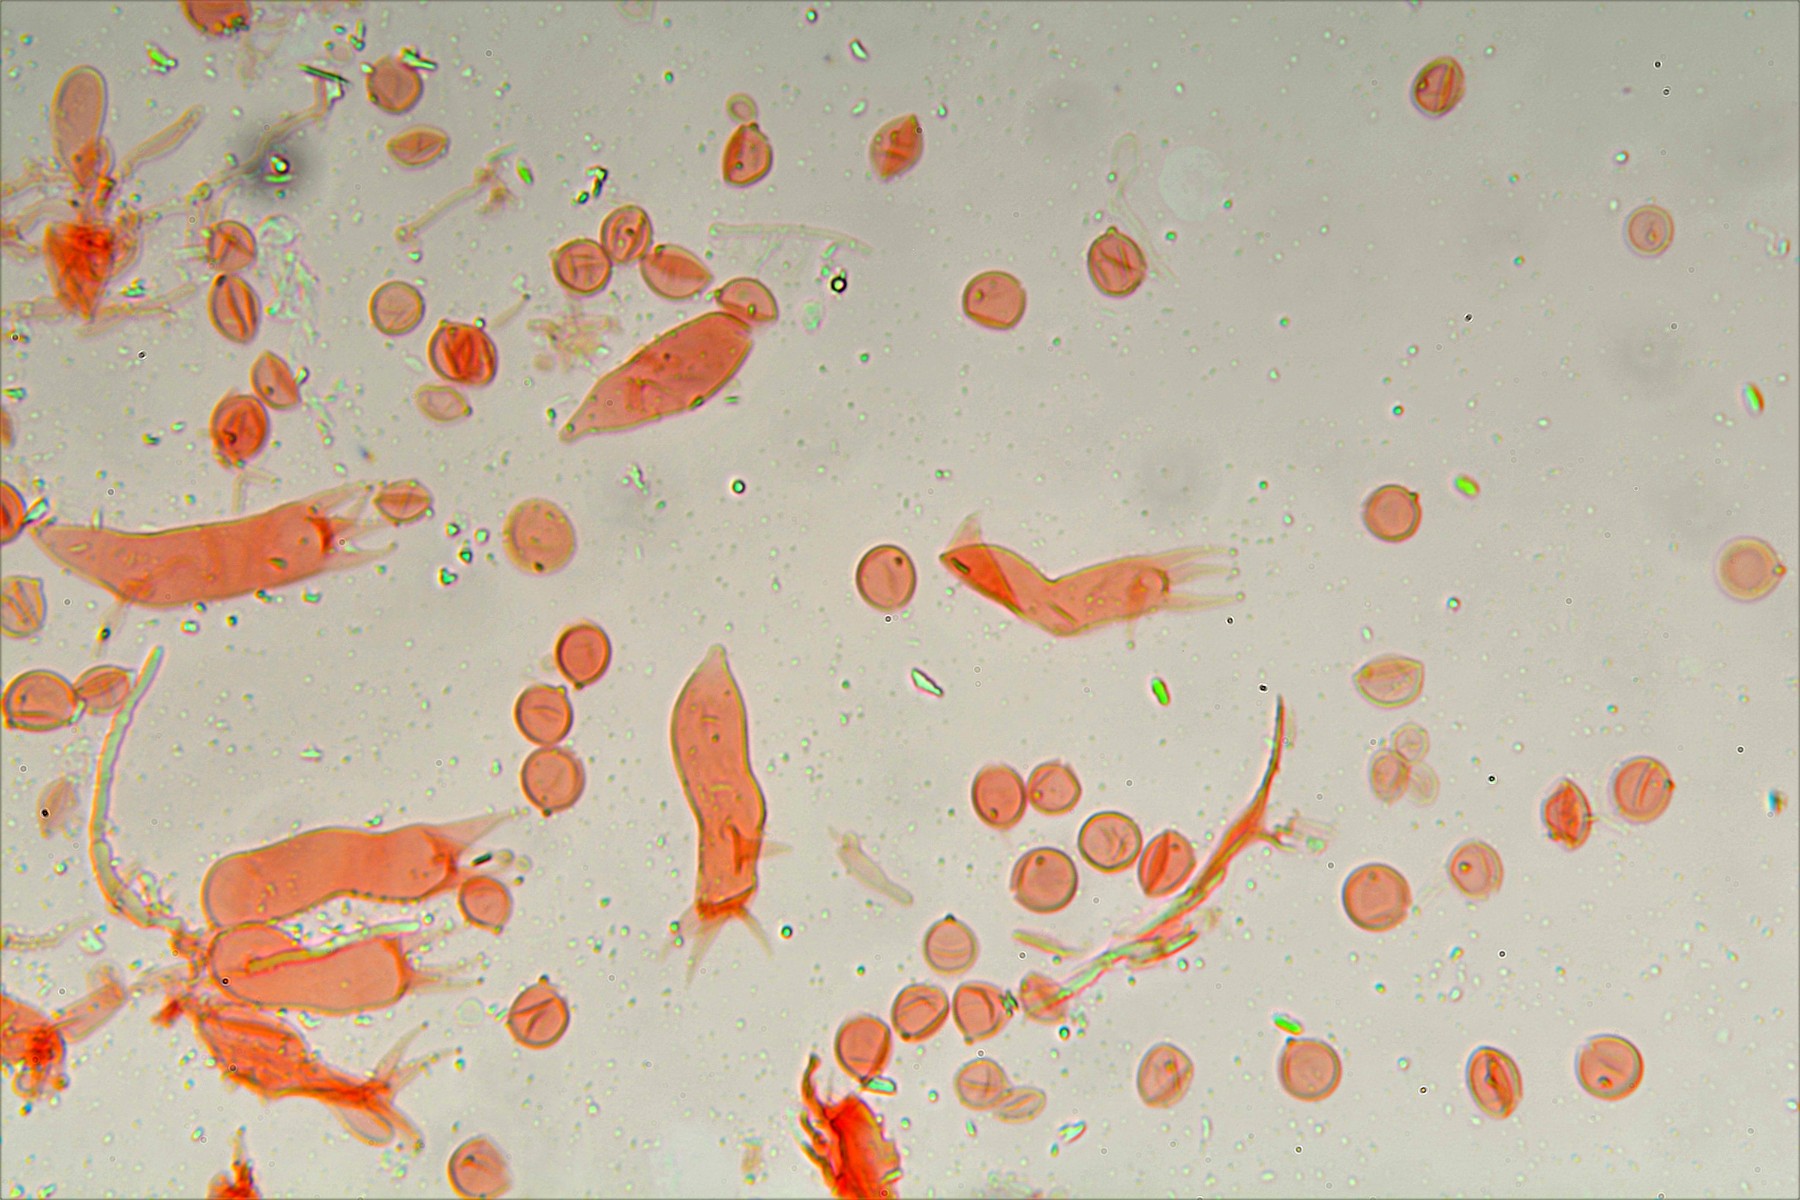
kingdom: Fungi
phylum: Basidiomycota
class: Agaricomycetes
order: Hymenochaetales
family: Rickenellaceae
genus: Globulicium
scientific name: Globulicium hiemale
